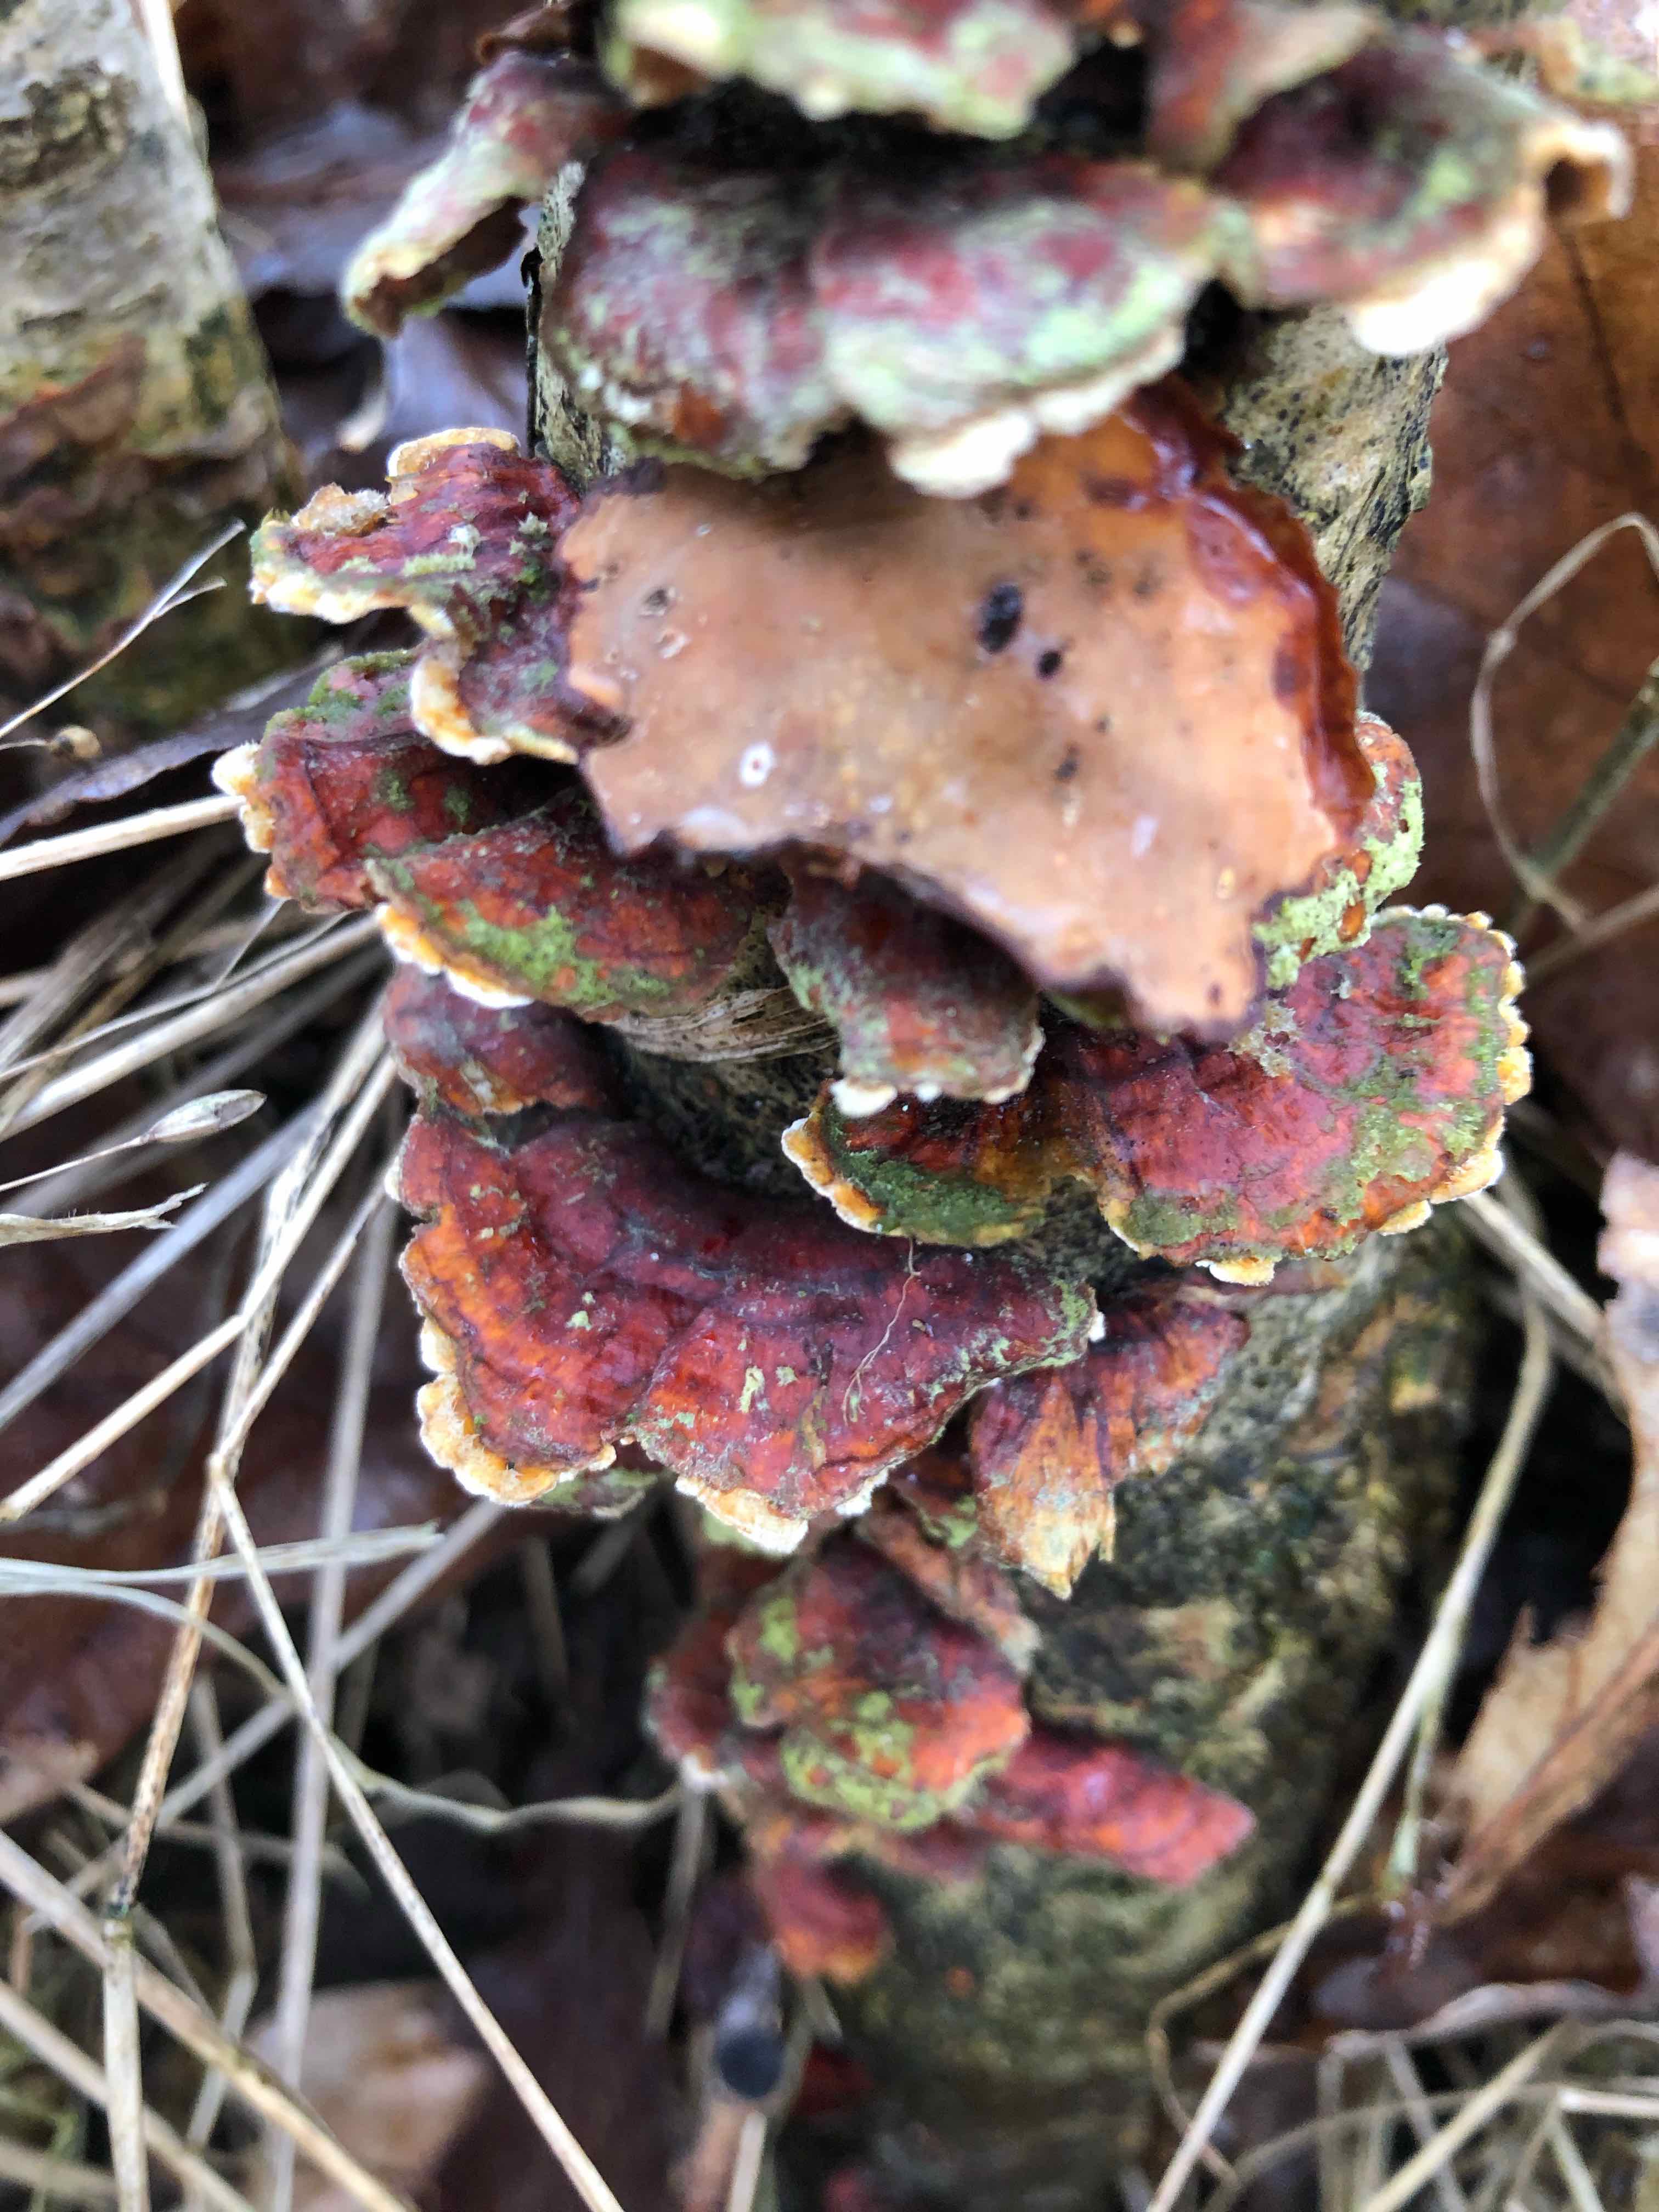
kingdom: Fungi
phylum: Basidiomycota
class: Agaricomycetes
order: Russulales
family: Stereaceae
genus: Stereum
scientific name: Stereum subtomentosum
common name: smuk lædersvamp
